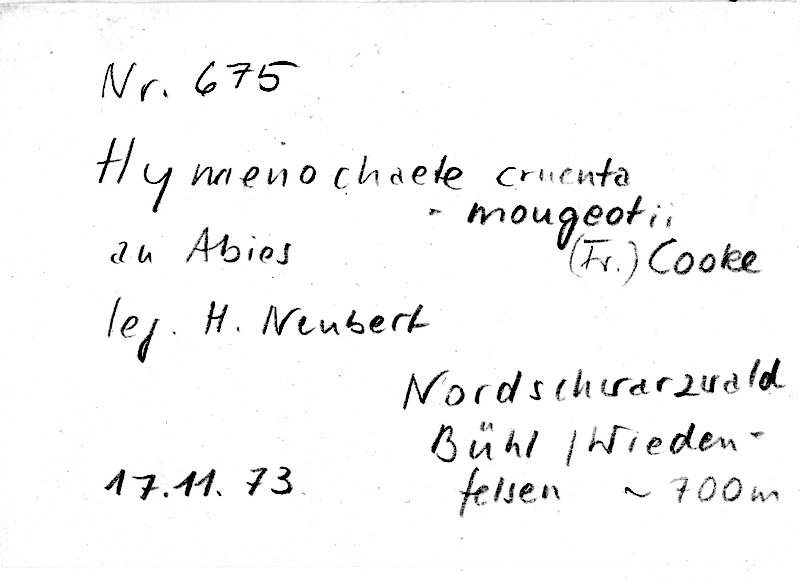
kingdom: Fungi
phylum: Basidiomycota
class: Agaricomycetes
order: Hymenochaetales
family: Hymenochaetaceae
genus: Hymenochaete
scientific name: Hymenochaete cruenta
